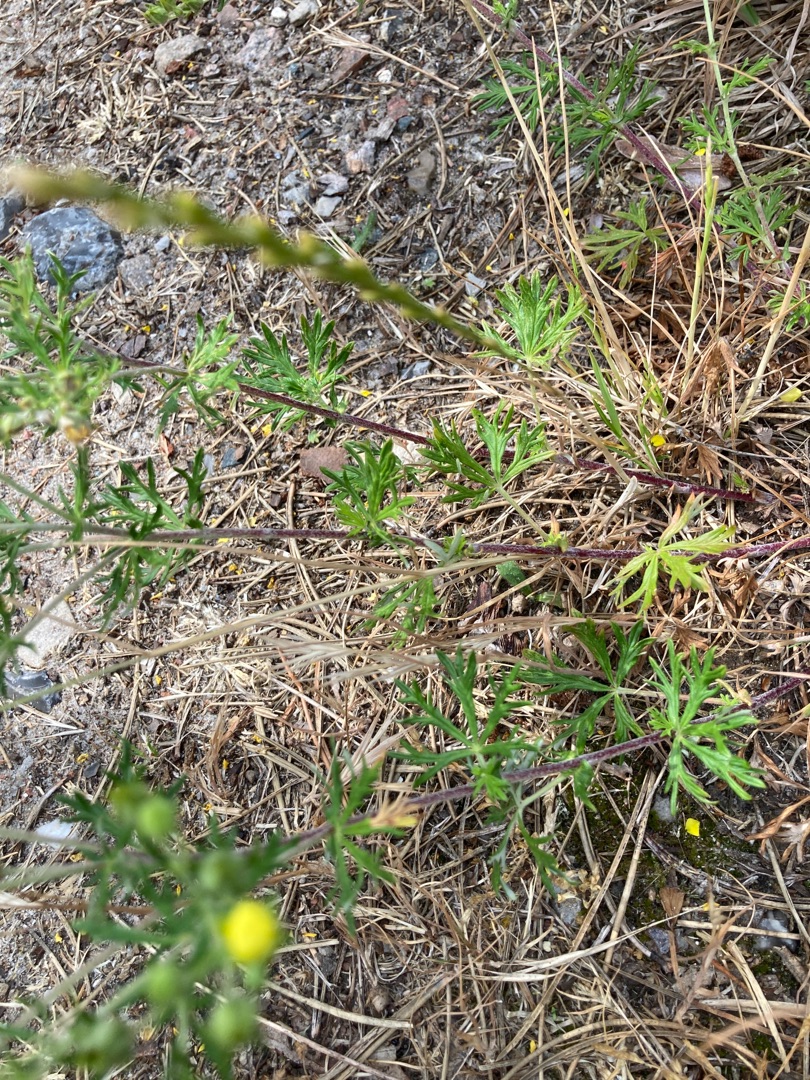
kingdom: Plantae
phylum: Tracheophyta
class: Magnoliopsida
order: Rosales
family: Rosaceae
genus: Potentilla
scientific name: Potentilla argentea
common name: Sølv-potentil
